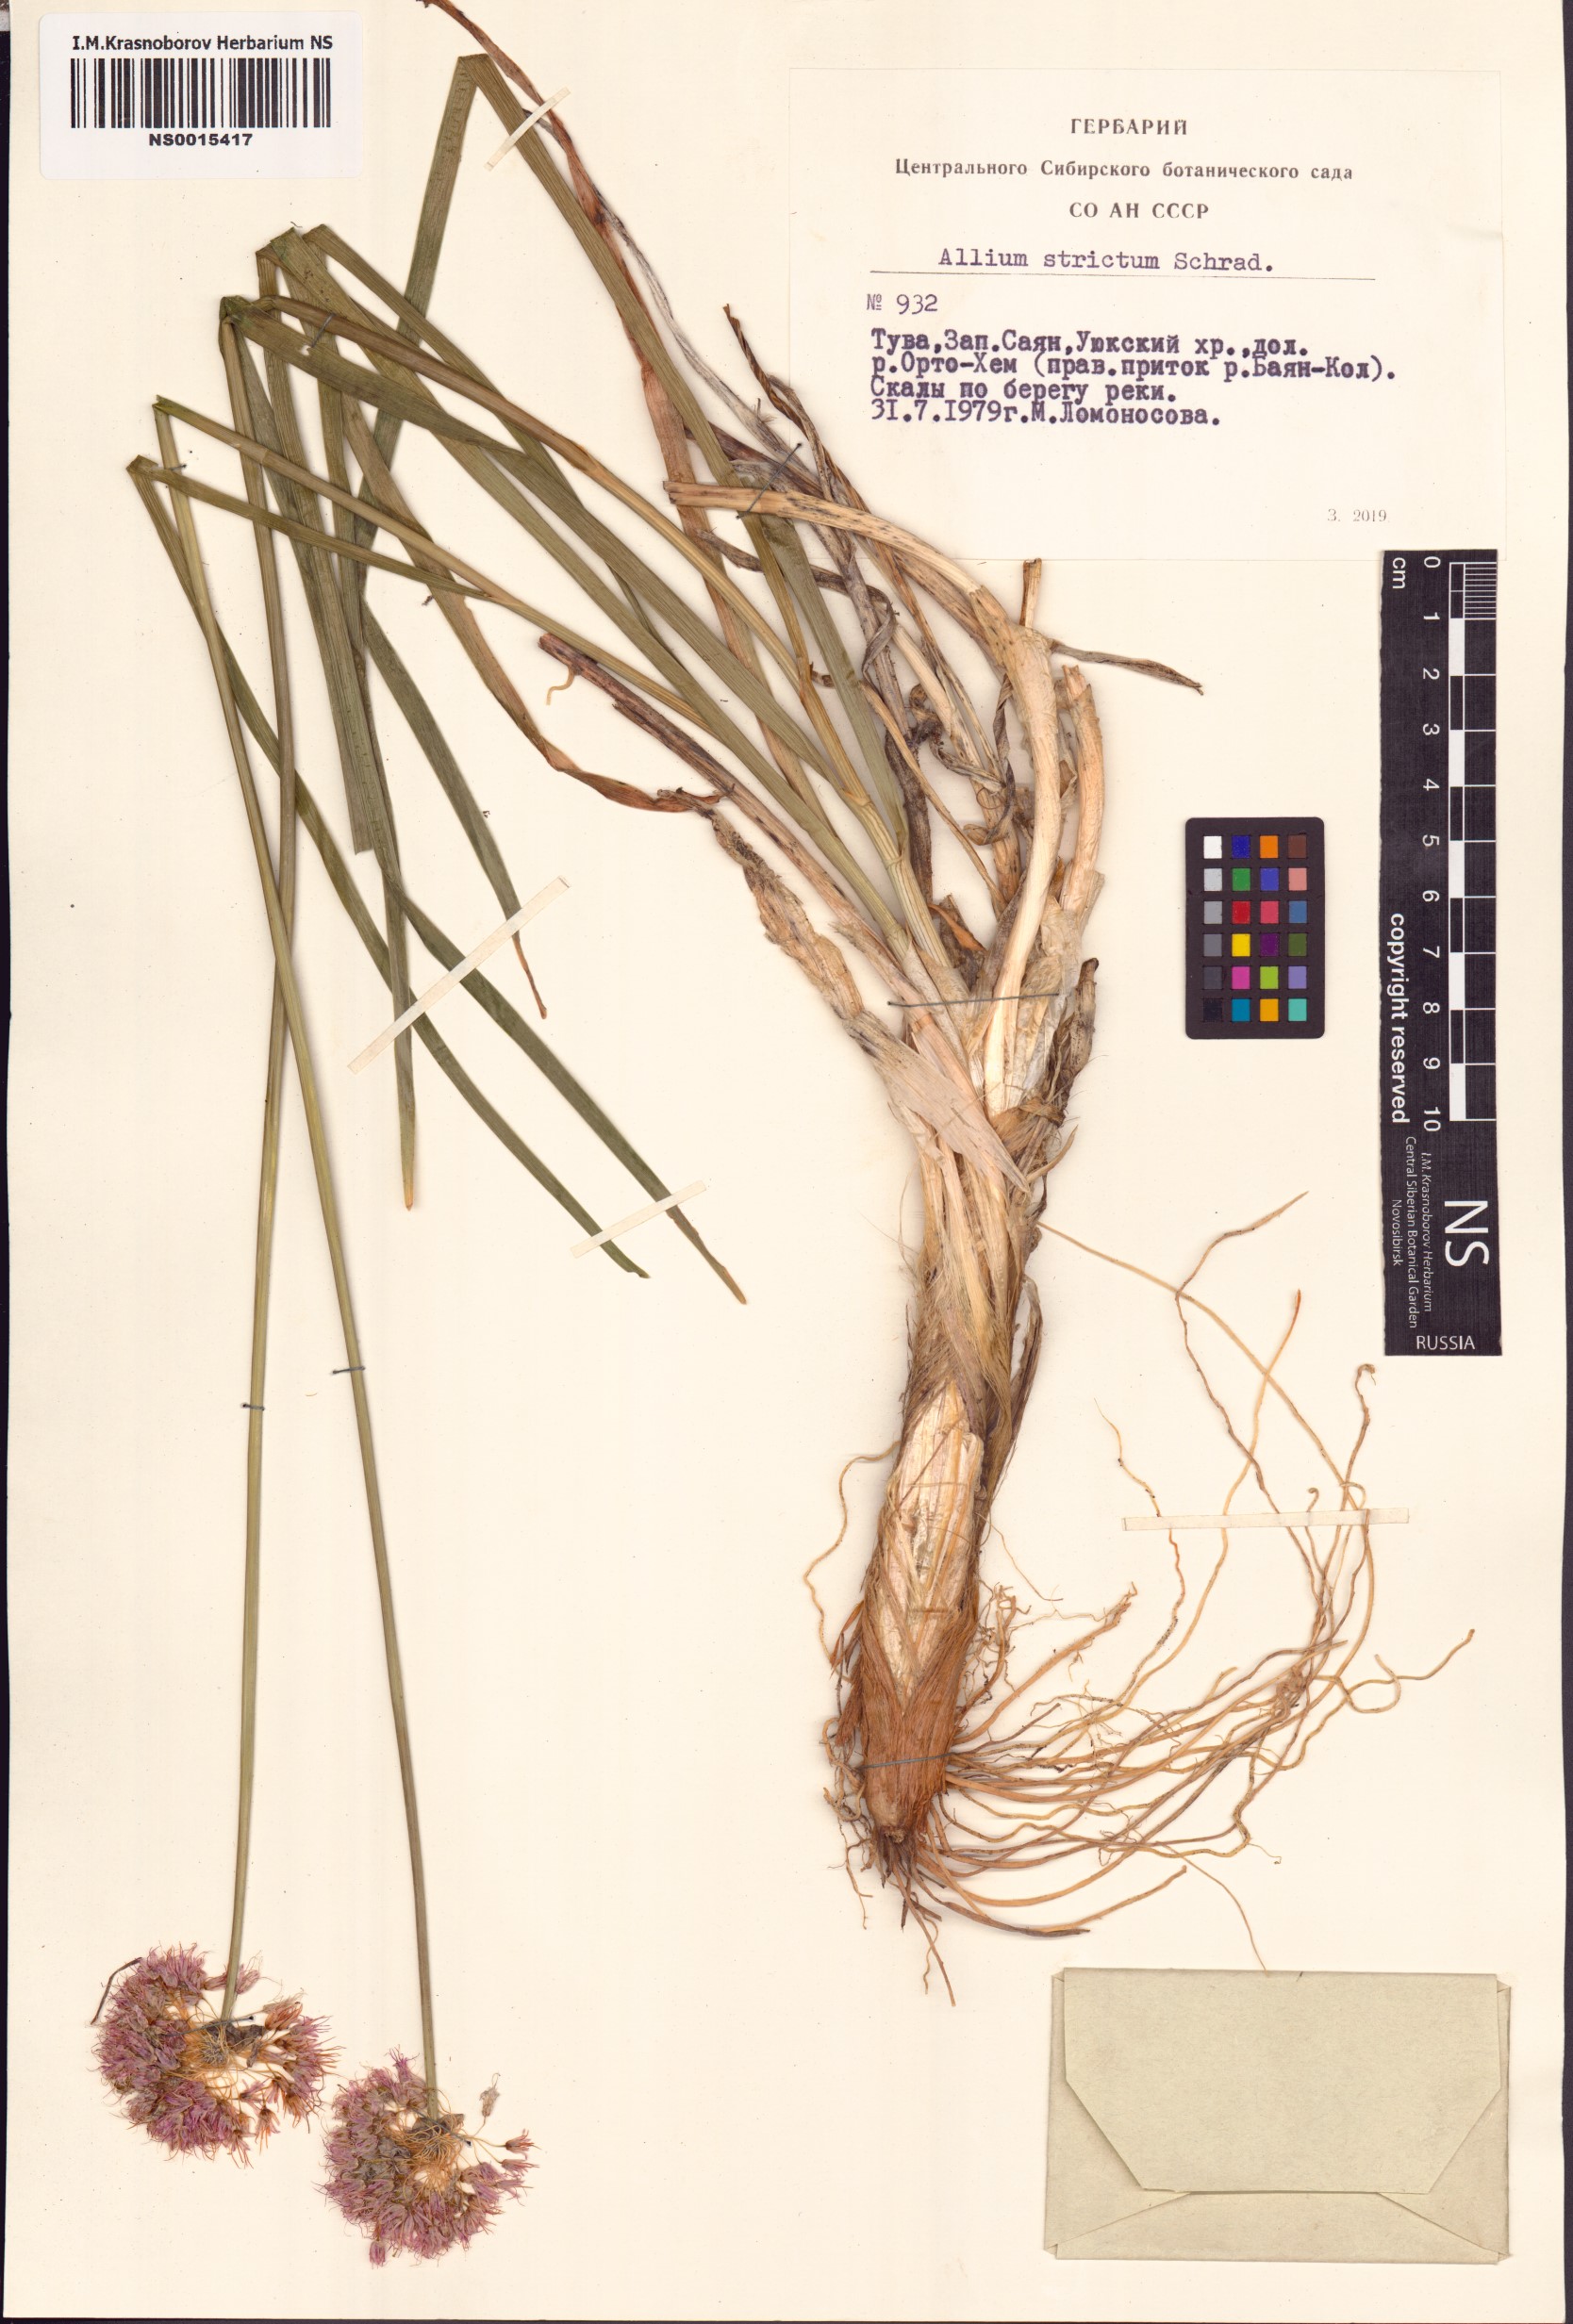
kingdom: Plantae
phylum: Tracheophyta
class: Liliopsida
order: Asparagales
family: Amaryllidaceae
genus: Allium
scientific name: Allium strictum
